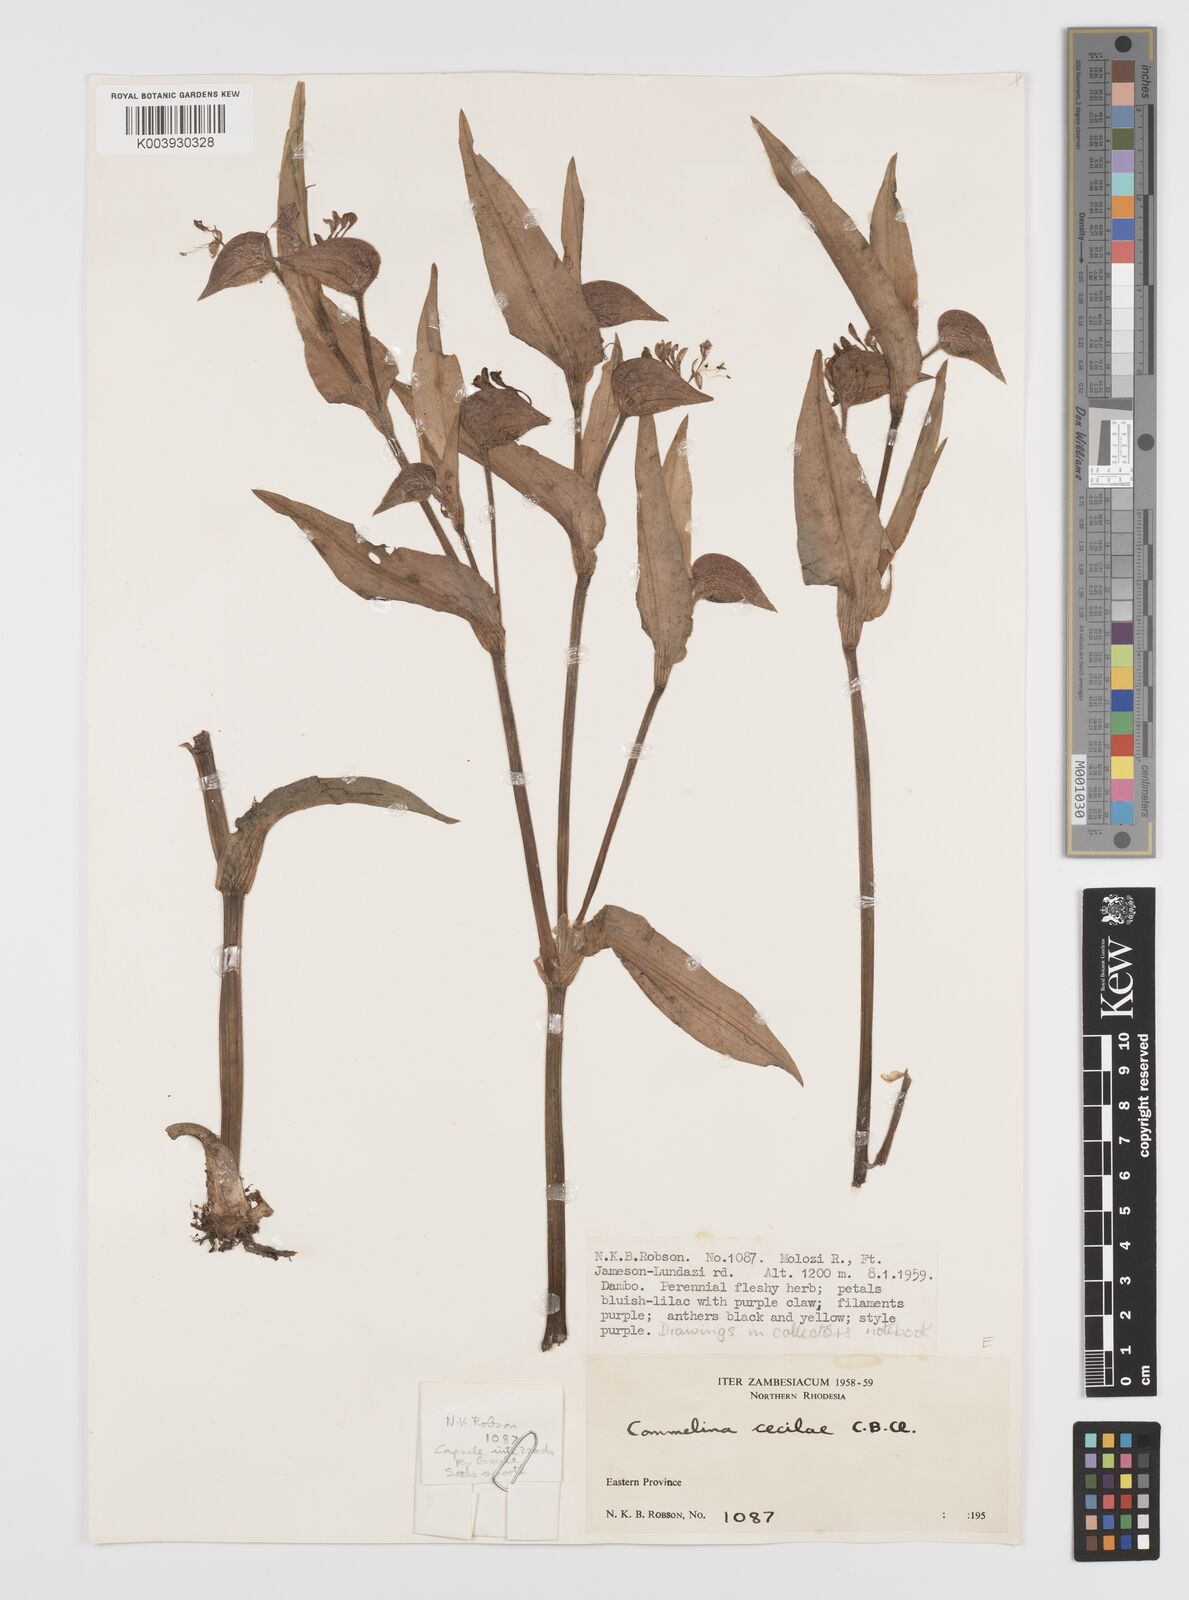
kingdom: Plantae
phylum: Tracheophyta
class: Liliopsida
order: Commelinales
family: Commelinaceae
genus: Commelina
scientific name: Commelina cecilae
